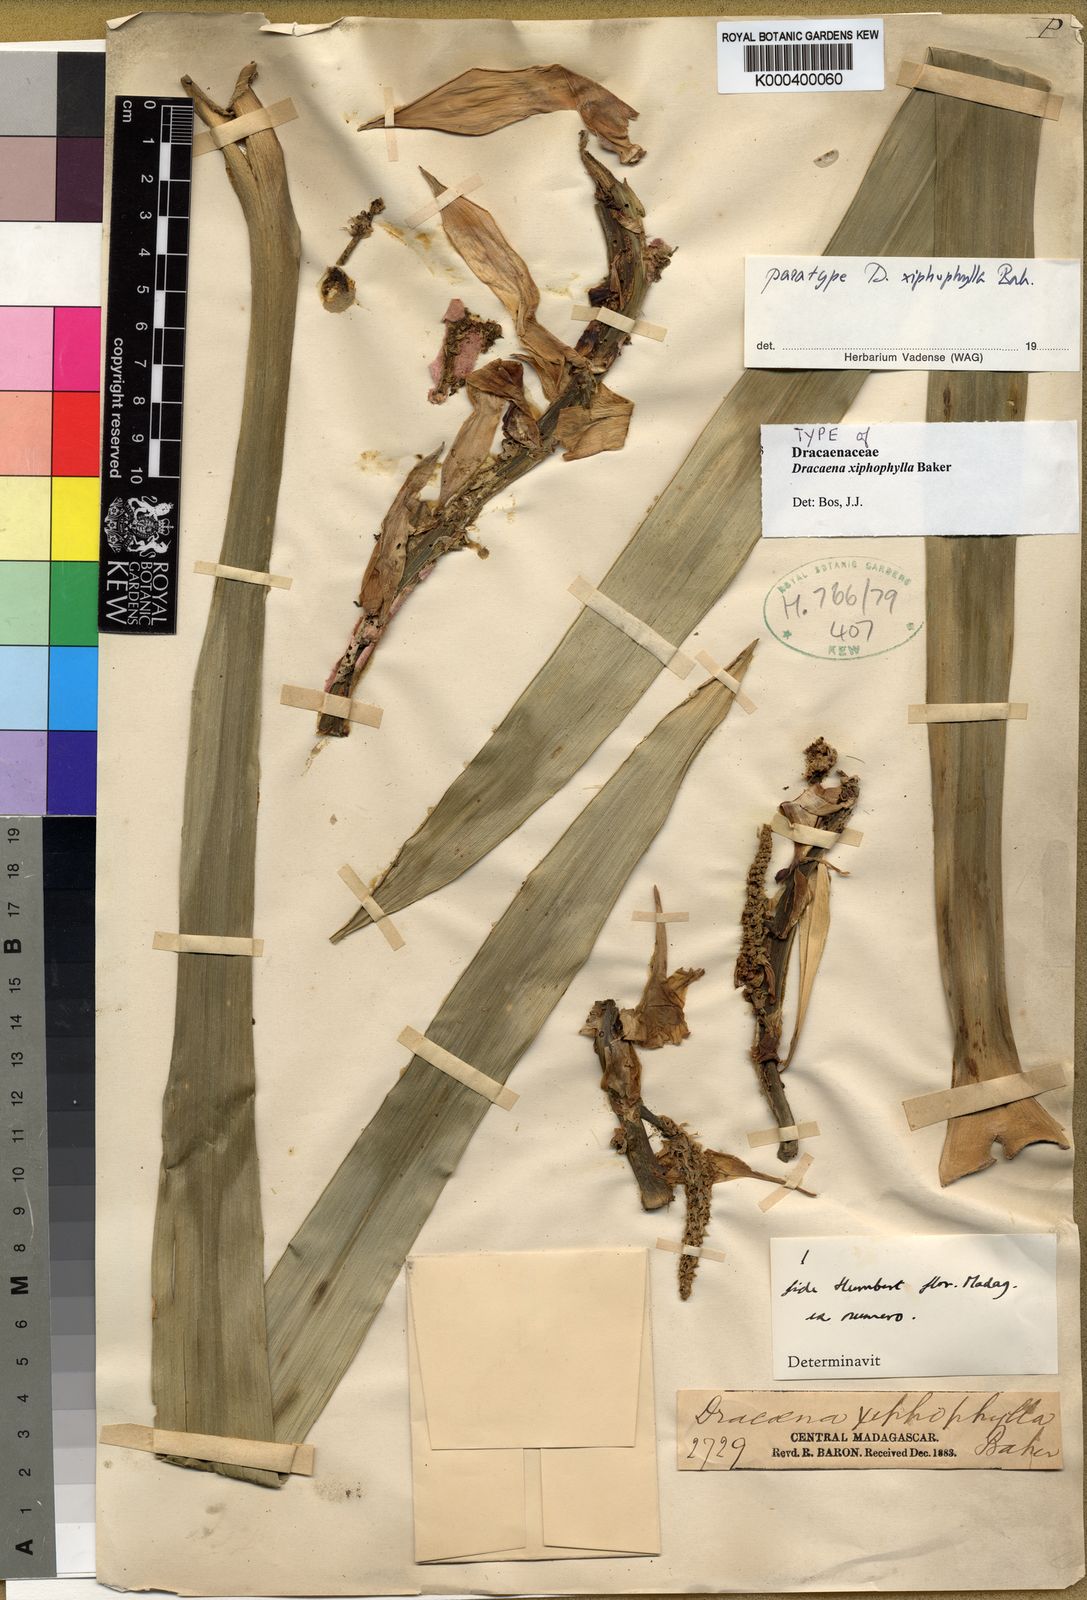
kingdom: Plantae
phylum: Tracheophyta
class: Liliopsida
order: Asparagales
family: Asparagaceae
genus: Dracaena
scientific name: Dracaena xiphophylla
